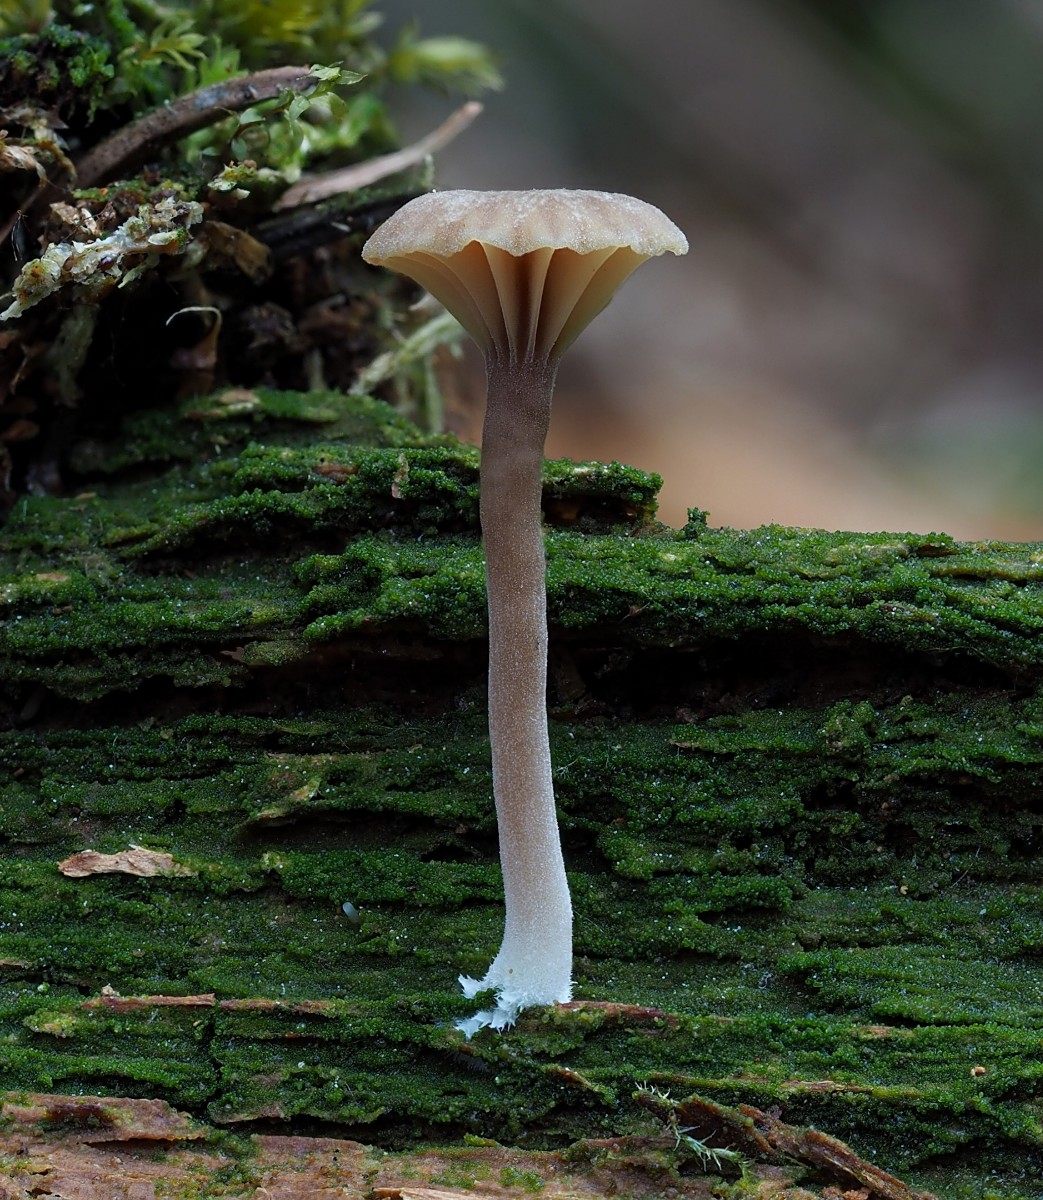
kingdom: Fungi
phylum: Basidiomycota
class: Agaricomycetes
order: Agaricales
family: Hygrophoraceae
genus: Lichenomphalia
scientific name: Lichenomphalia umbellifera
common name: tørve-lavhat
